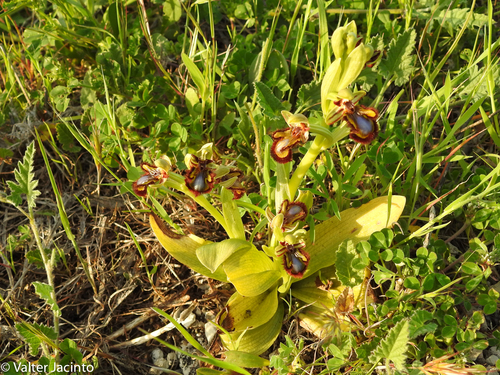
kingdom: Plantae
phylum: Tracheophyta
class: Liliopsida
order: Asparagales
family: Orchidaceae
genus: Ophrys
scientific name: Ophrys speculum
